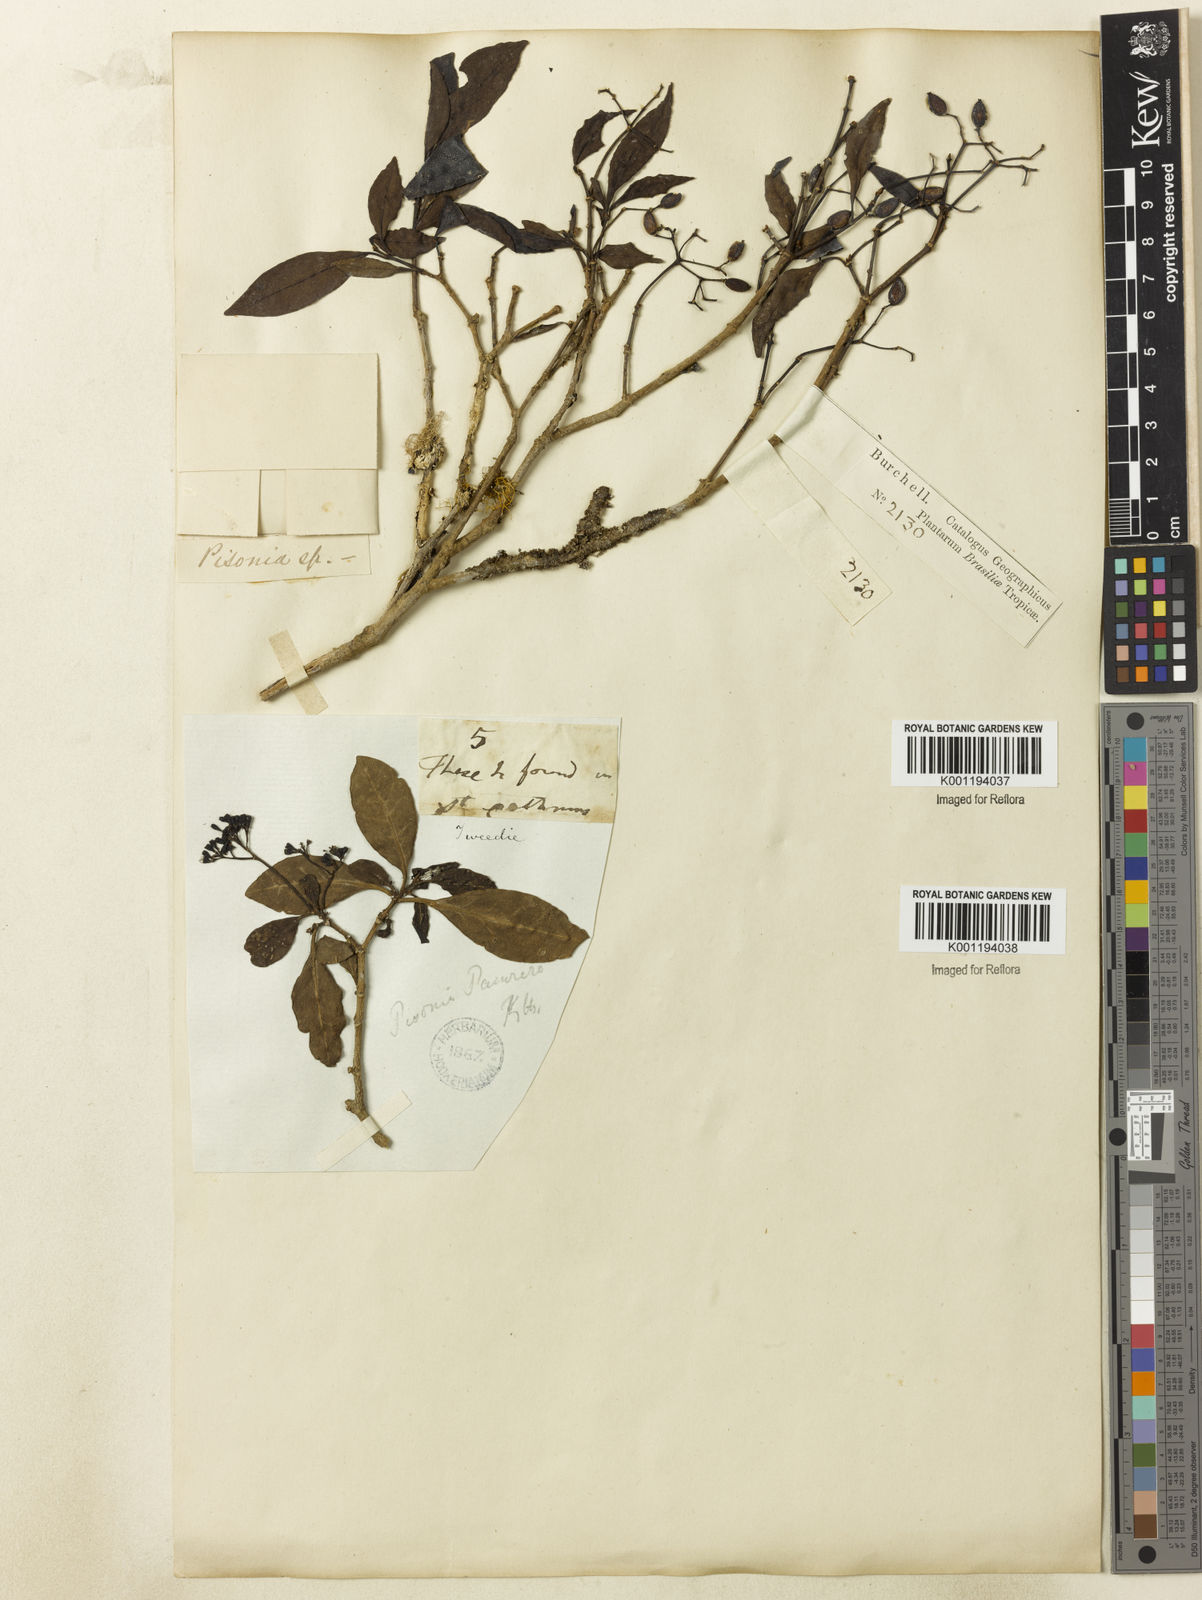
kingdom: Plantae
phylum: Tracheophyta
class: Magnoliopsida
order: Caryophyllales
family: Nyctaginaceae
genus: Guapira
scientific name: Guapira
